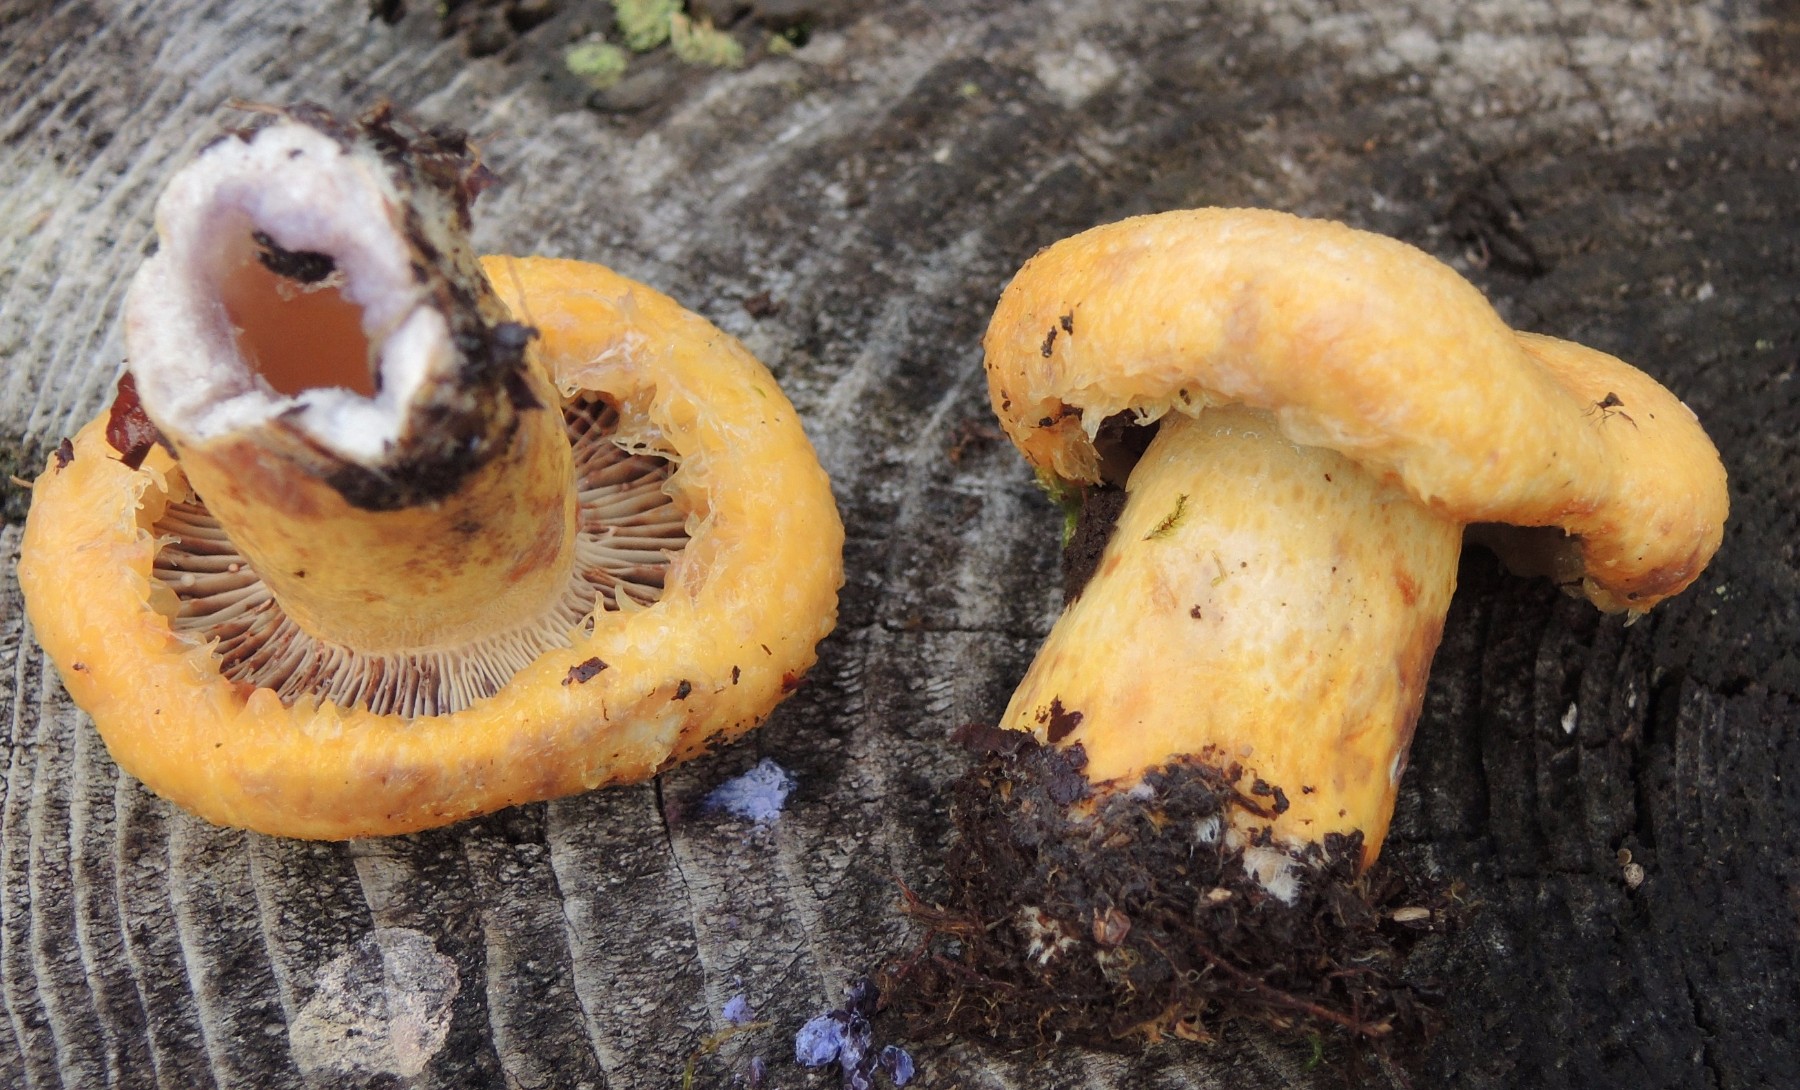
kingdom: Fungi
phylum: Basidiomycota
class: Agaricomycetes
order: Russulales
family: Russulaceae
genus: Lactarius
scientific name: Lactarius repraesentaneus
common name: prægtig mælkehat
